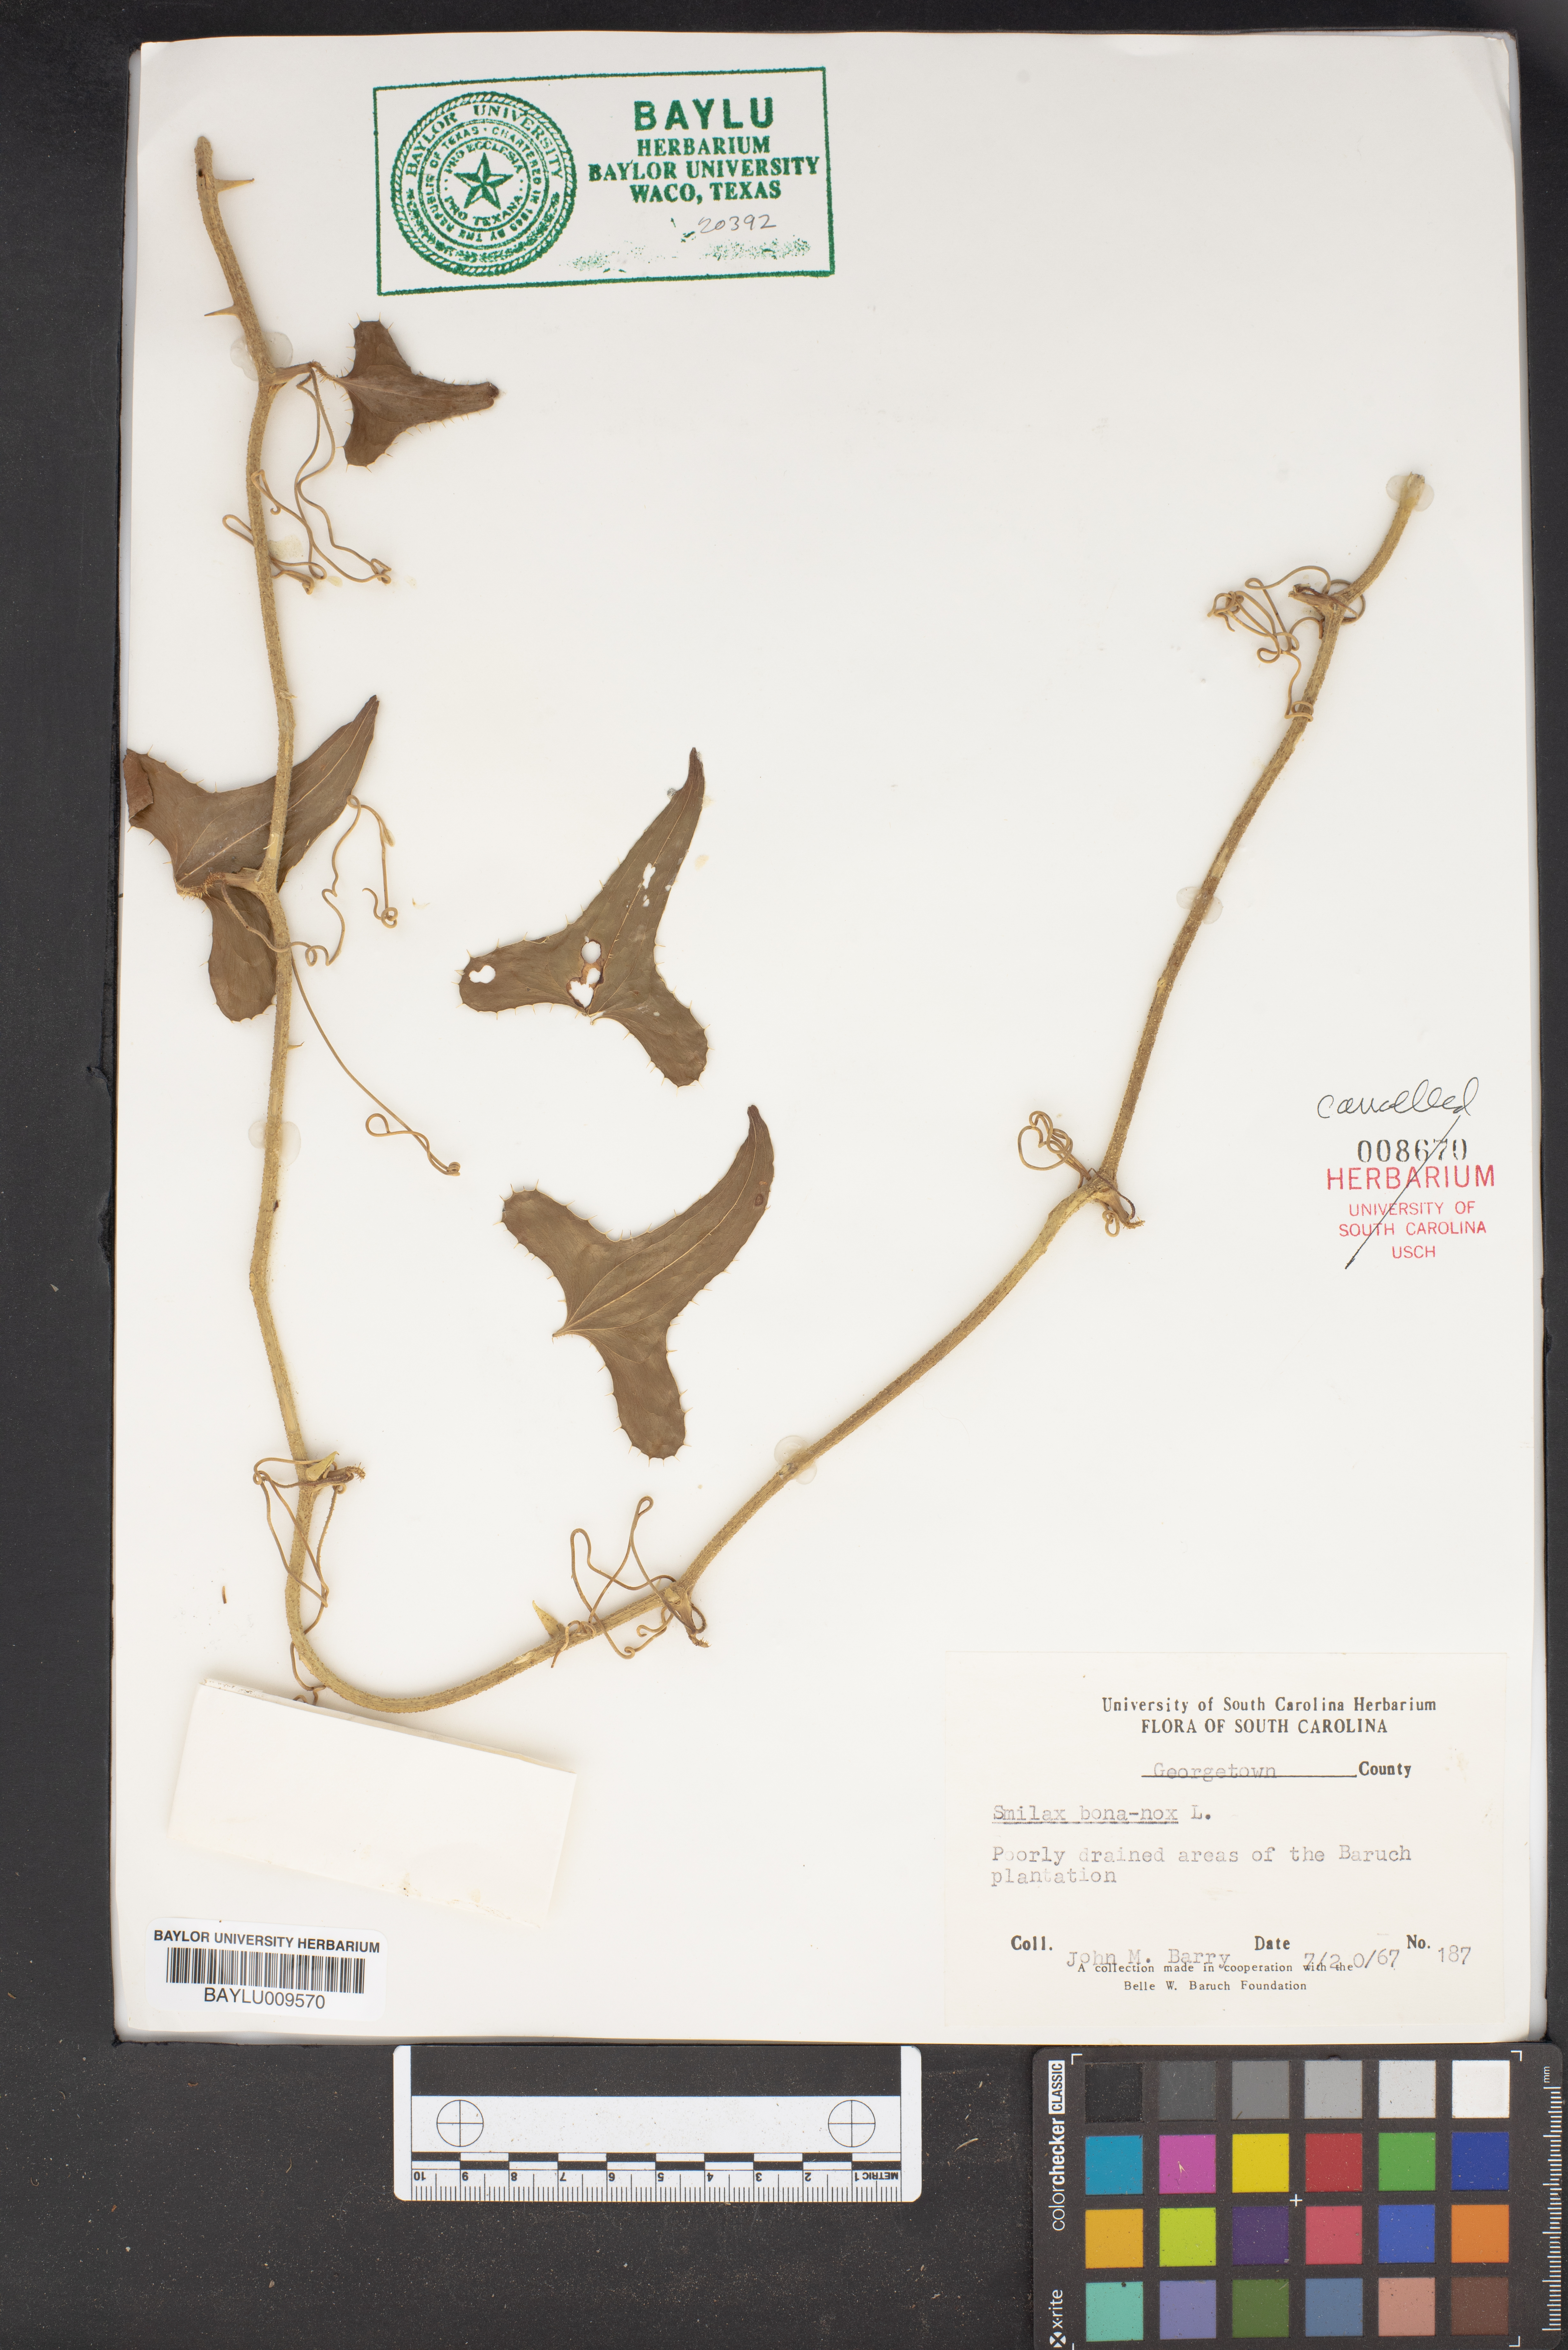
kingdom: Plantae
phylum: Tracheophyta
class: Liliopsida
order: Liliales
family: Smilacaceae
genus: Smilax
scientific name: Smilax bona-nox
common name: Catbrier
